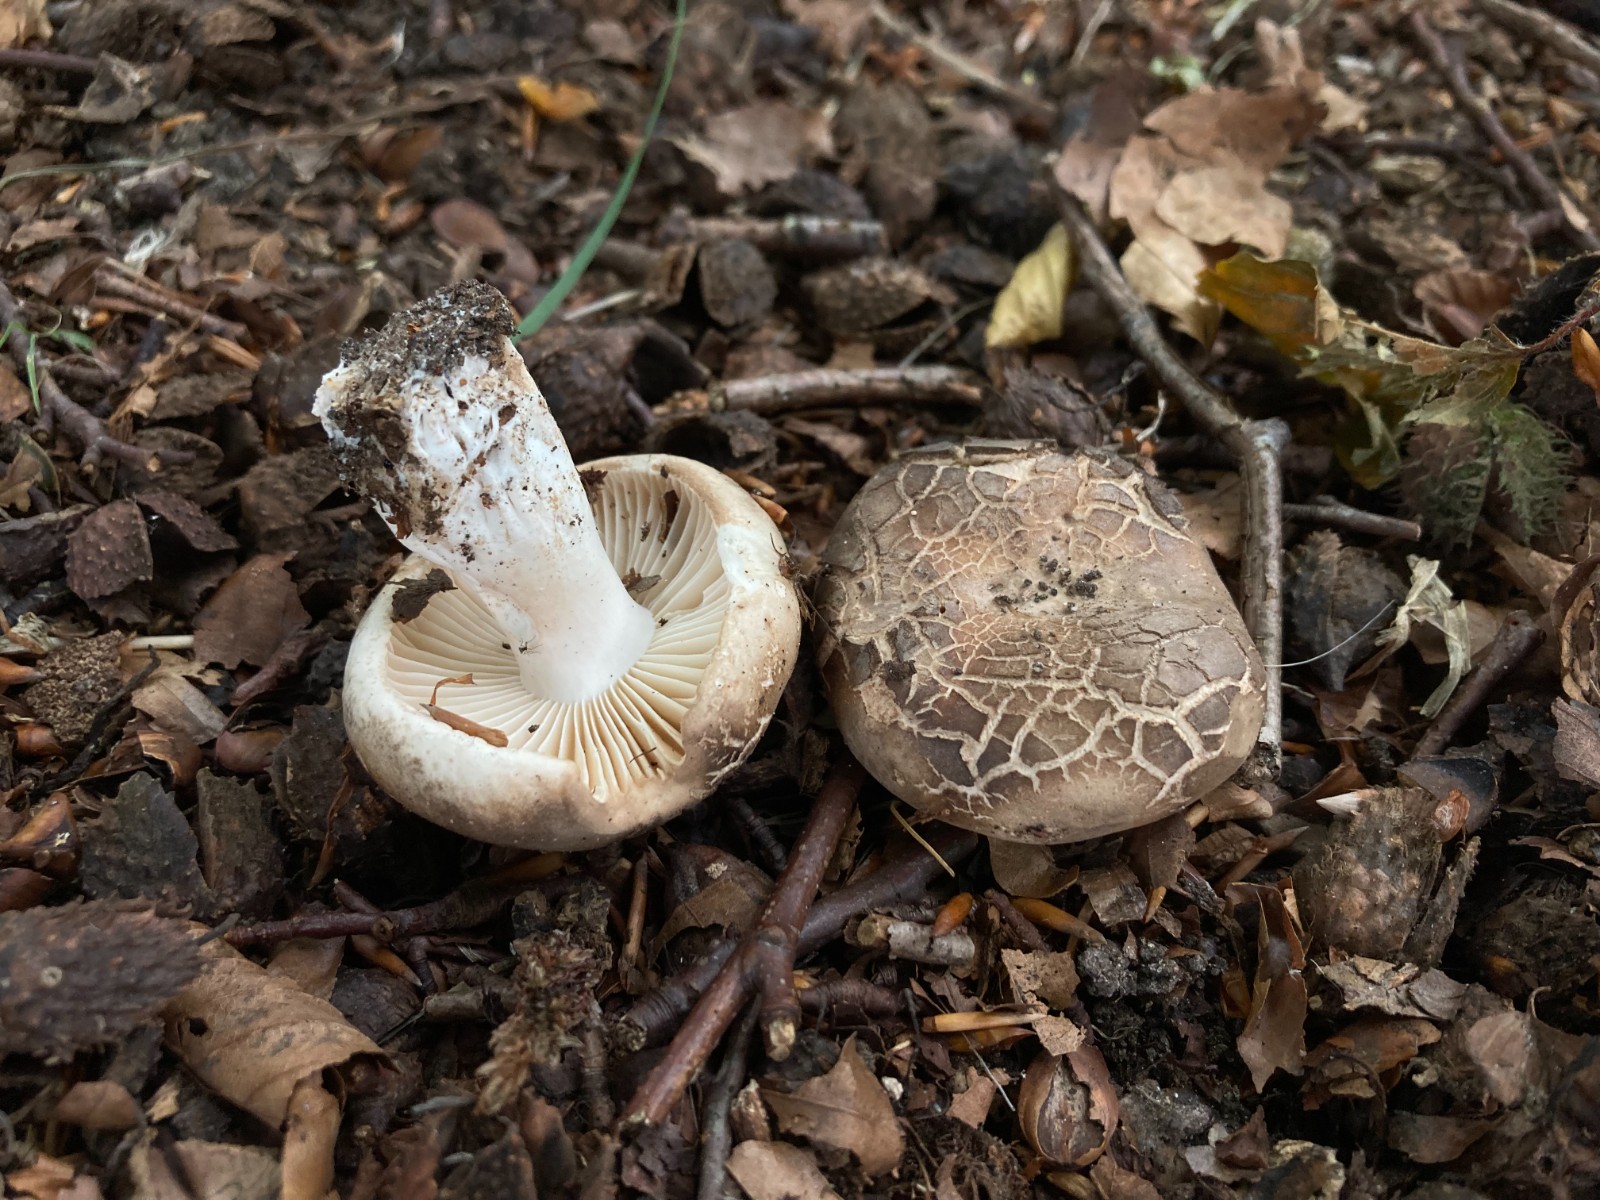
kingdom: Fungi
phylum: Basidiomycota
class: Agaricomycetes
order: Russulales
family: Russulaceae
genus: Russula
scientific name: Russula adusta
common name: sværtende skørhat
